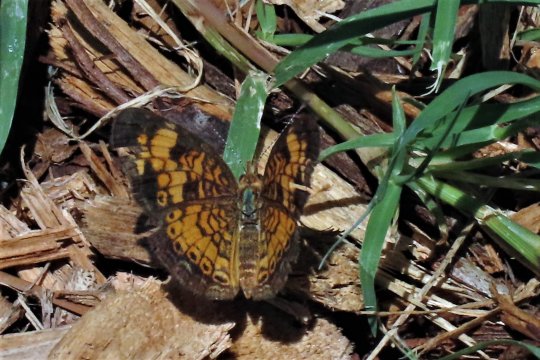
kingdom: Animalia
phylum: Arthropoda
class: Insecta
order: Lepidoptera
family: Nymphalidae
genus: Phyciodes
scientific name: Phyciodes tharos
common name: Pearl Crescent
